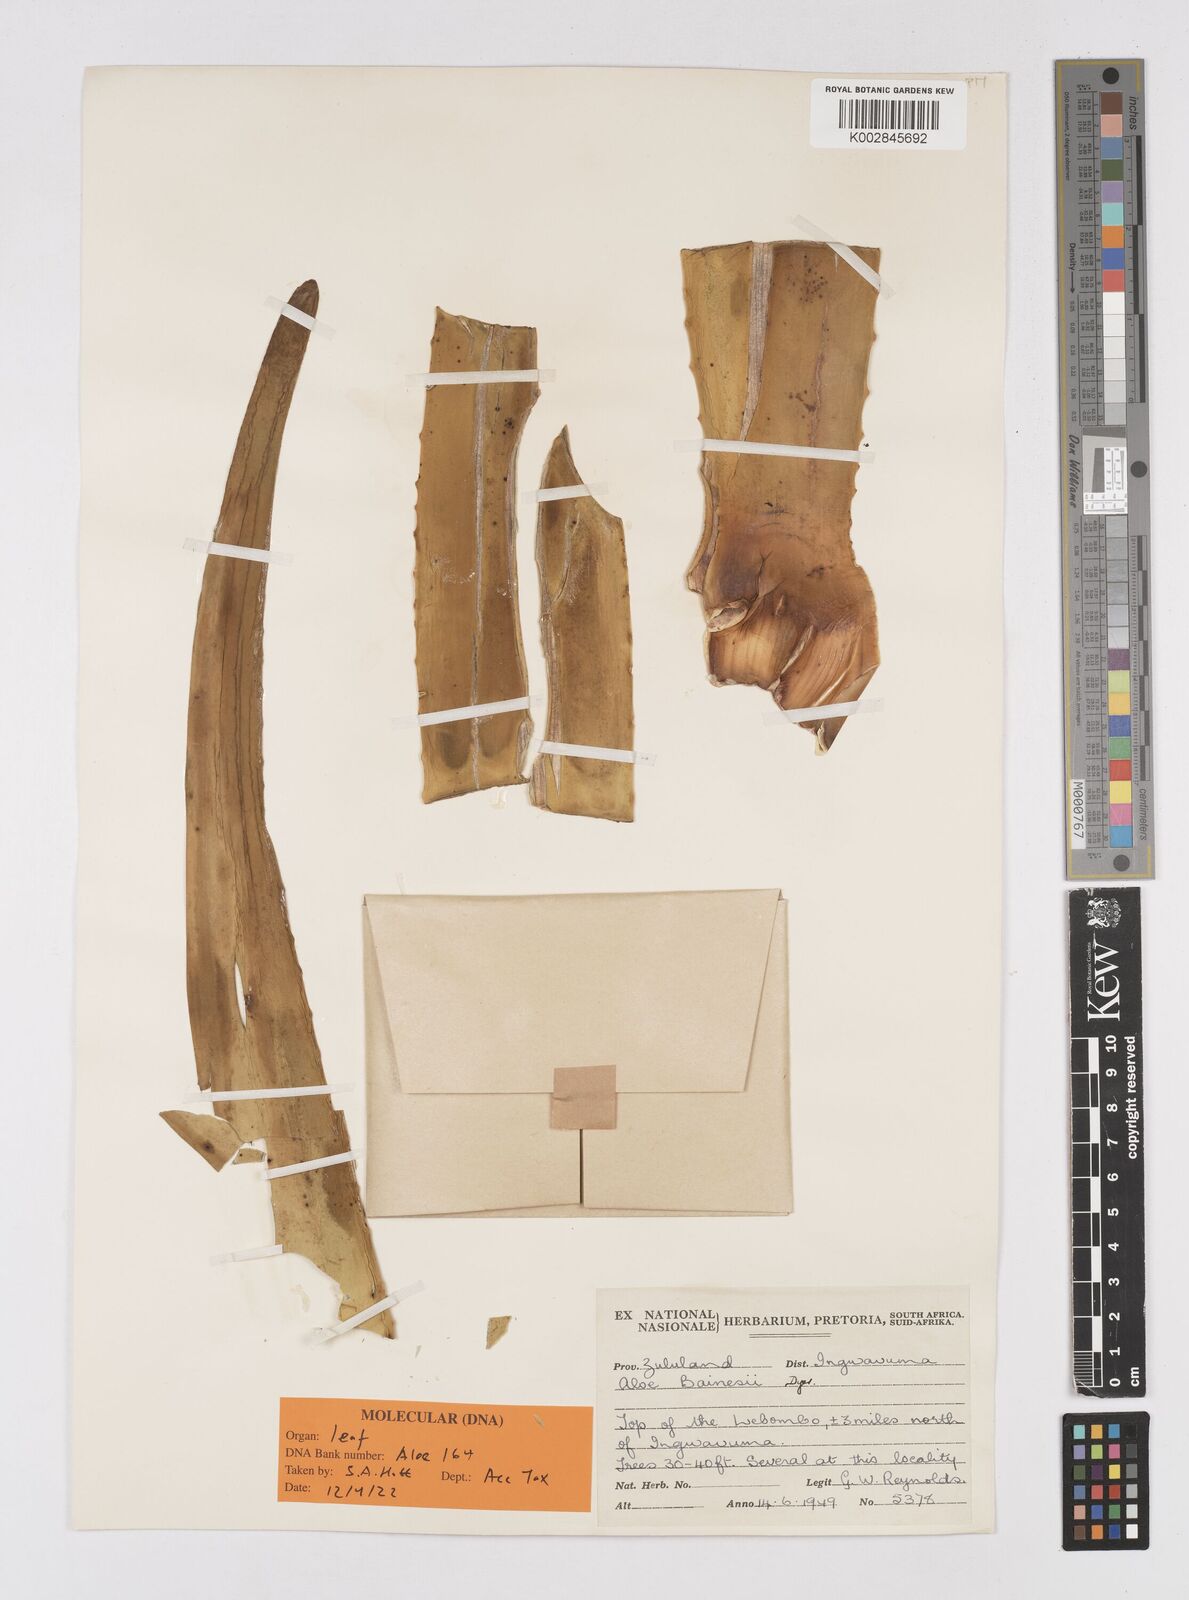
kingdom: Plantae
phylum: Tracheophyta
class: Liliopsida
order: Asparagales
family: Asphodelaceae
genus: Aloidendron
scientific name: Aloidendron barberae
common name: Tree aloe
